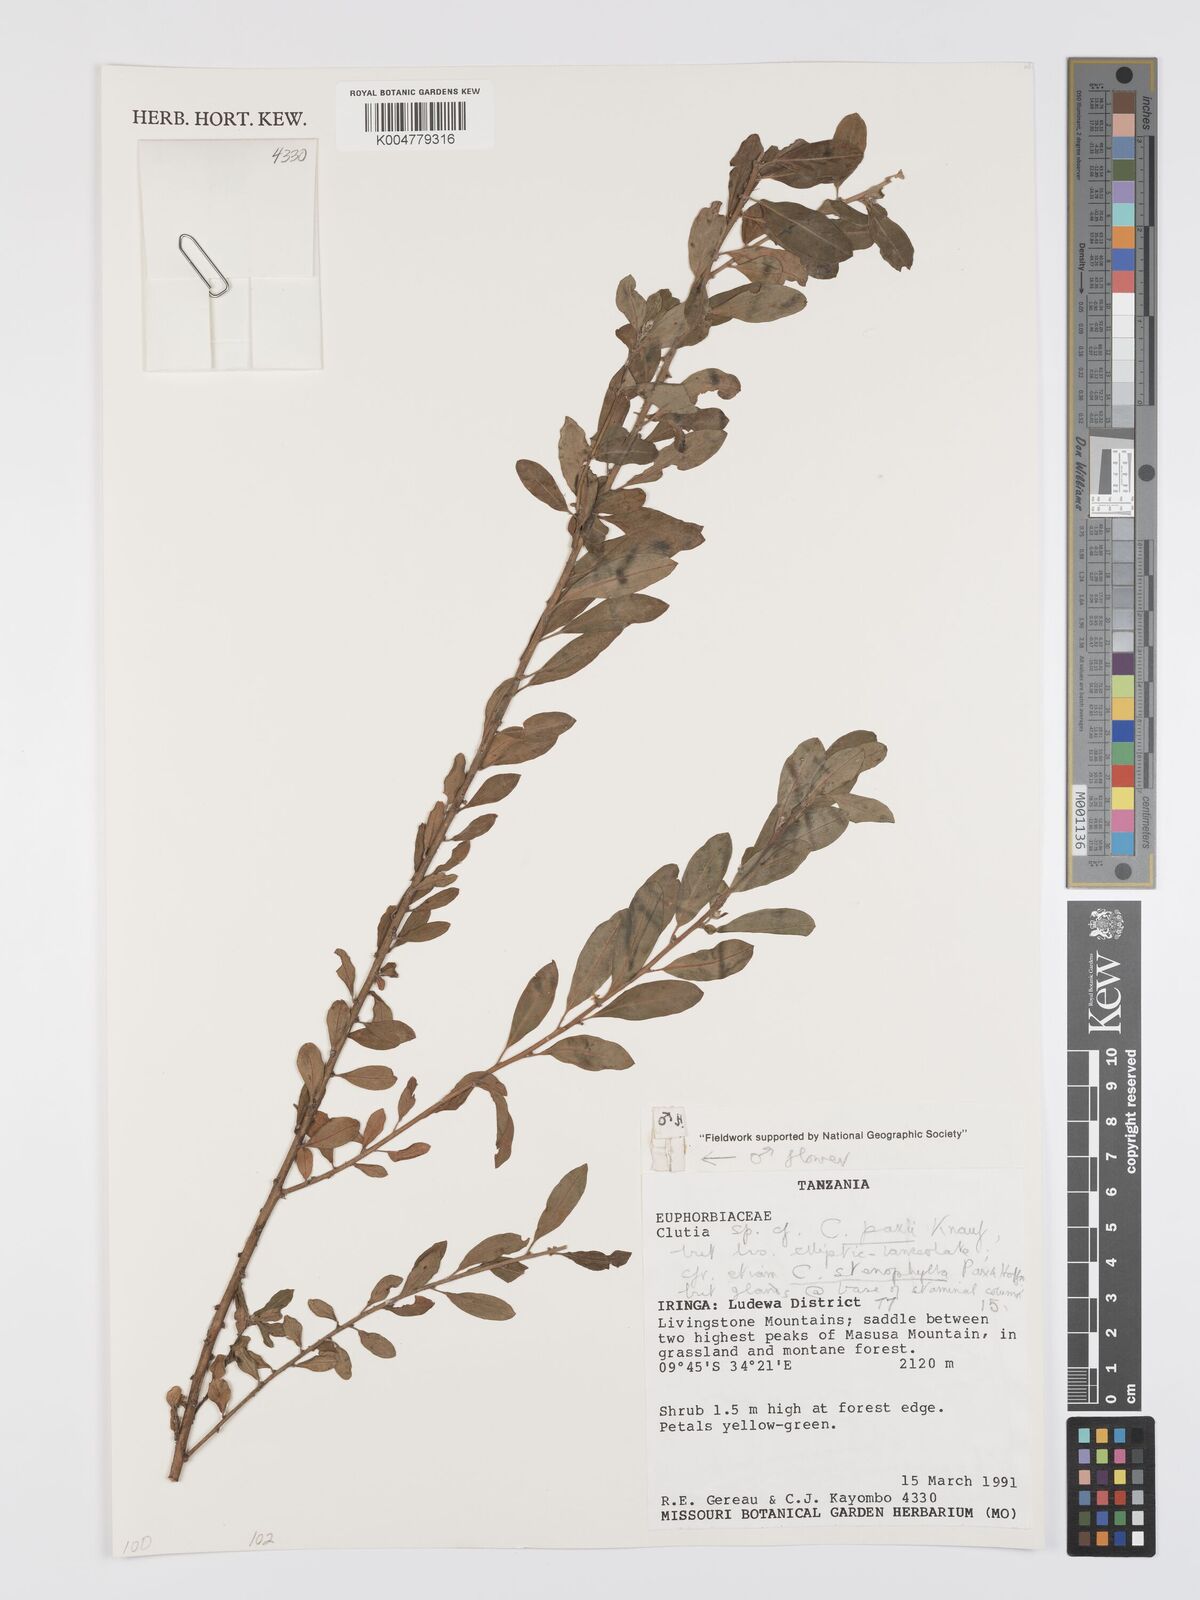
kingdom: Plantae
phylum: Tracheophyta
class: Magnoliopsida
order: Malpighiales
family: Peraceae
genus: Clutia
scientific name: Clutia paxii
